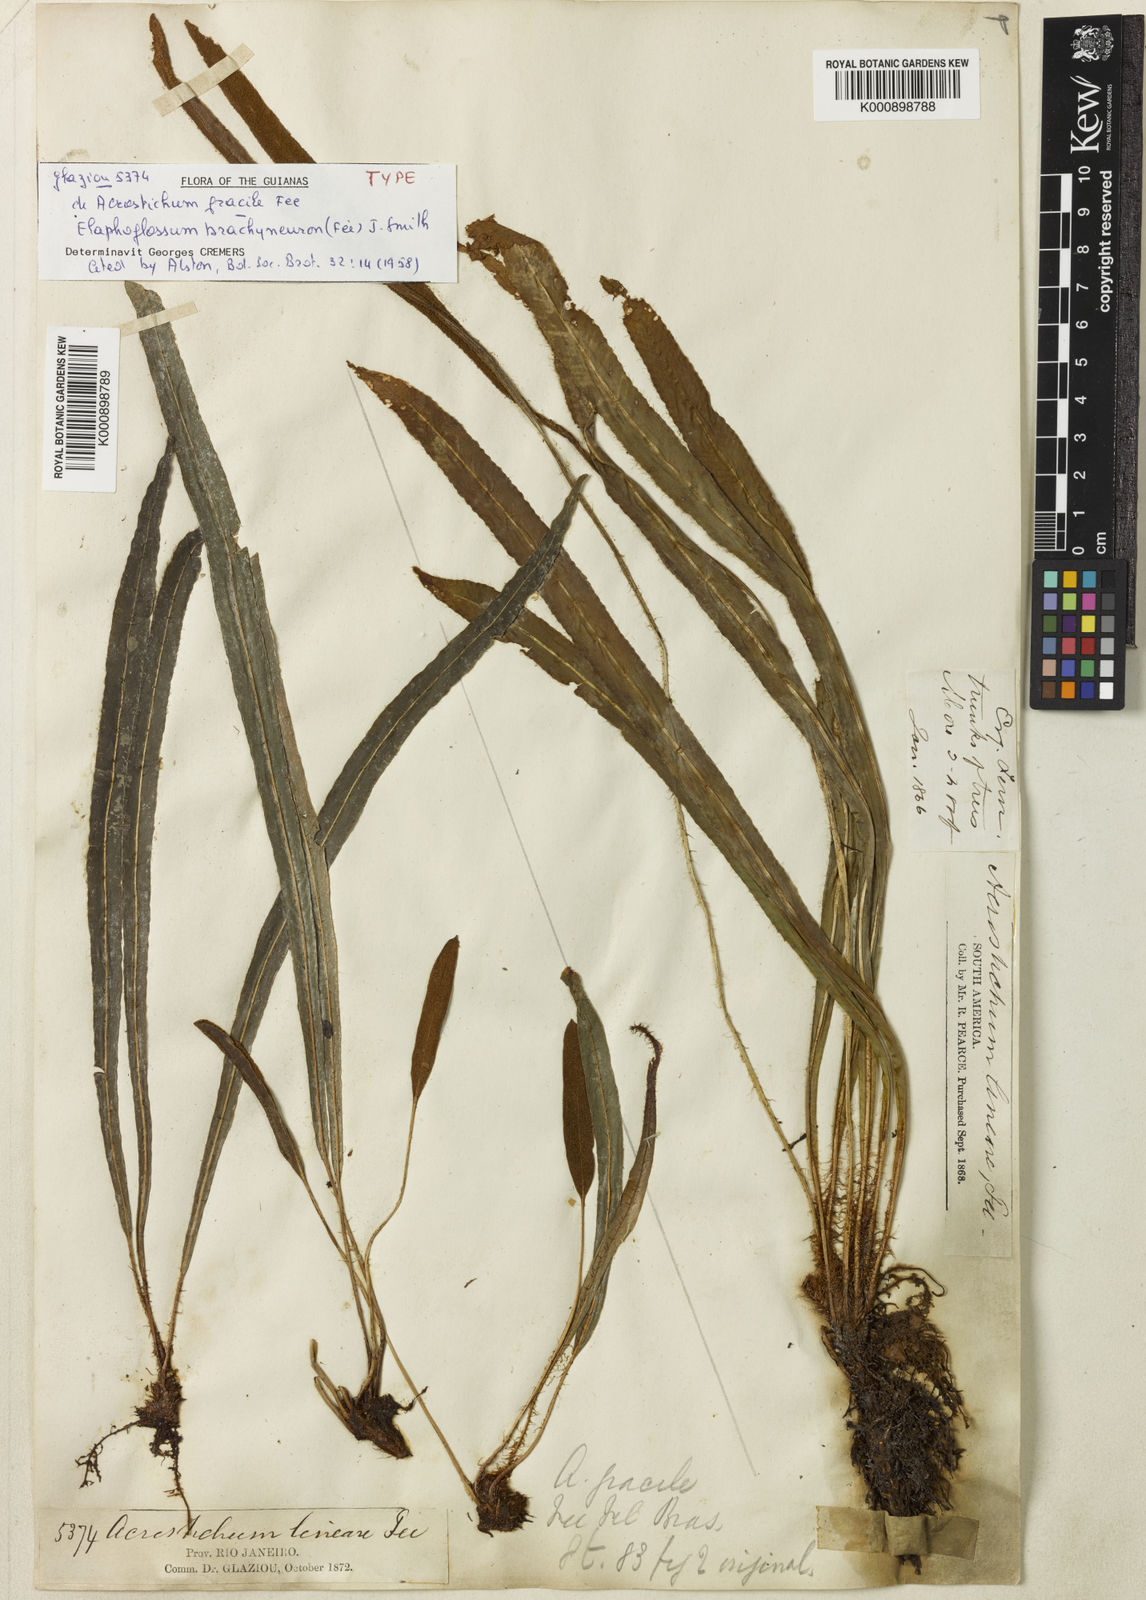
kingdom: Plantae
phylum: Tracheophyta
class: Polypodiopsida
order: Polypodiales
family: Dryopteridaceae
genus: Elaphoglossum
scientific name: Elaphoglossum
